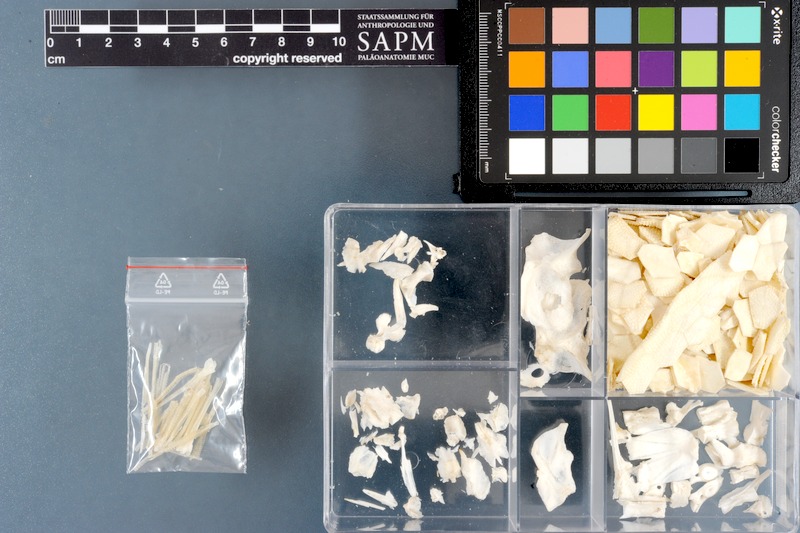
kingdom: Animalia
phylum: Chordata
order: Tetraodontiformes
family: Ostraciidae
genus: Ostracion
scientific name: Ostracion cubicus
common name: Cube trunkfish
